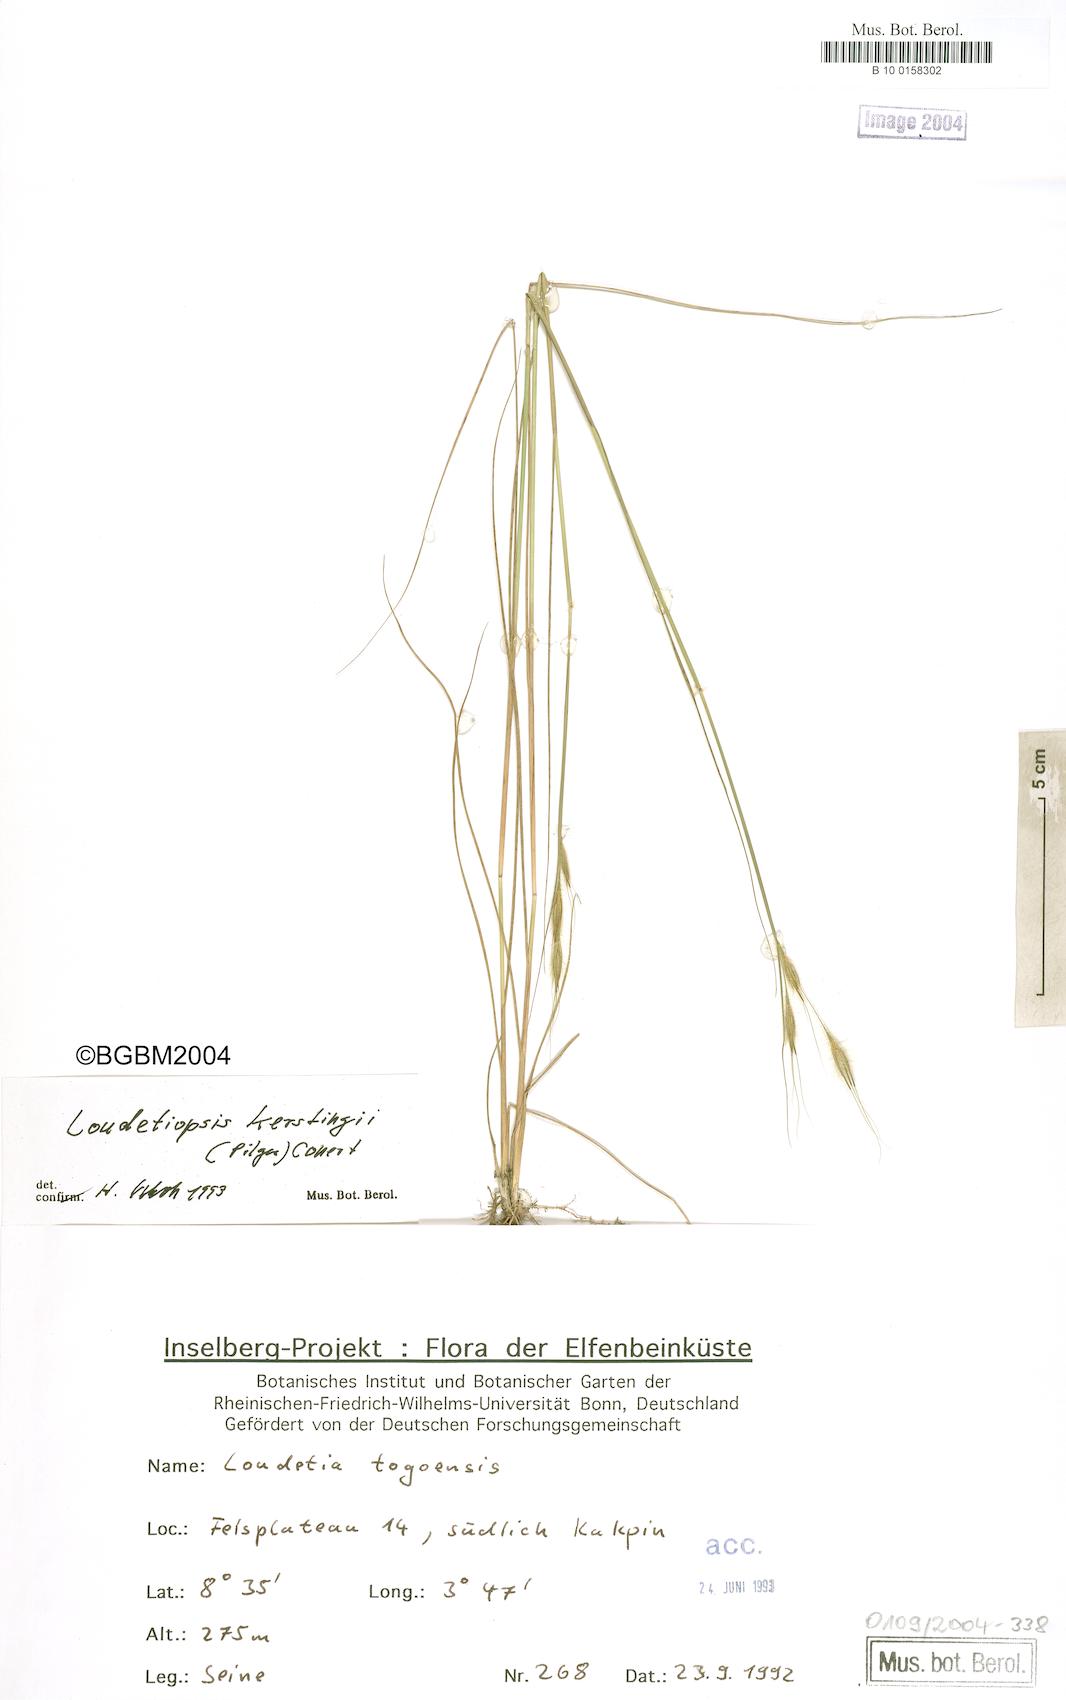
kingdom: Plantae
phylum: Tracheophyta
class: Liliopsida
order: Poales
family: Poaceae
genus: Loudetiopsis
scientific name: Loudetiopsis kerstingii
